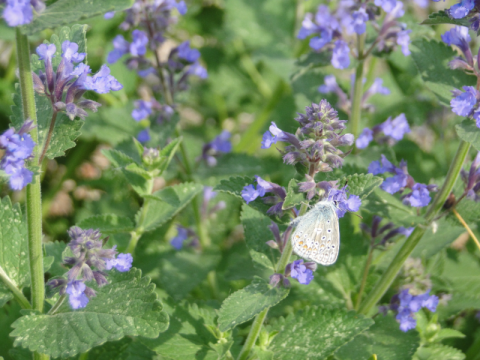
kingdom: Animalia
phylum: Arthropoda
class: Insecta
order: Lepidoptera
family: Lycaenidae
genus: Polyommatus
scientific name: Polyommatus icarus
